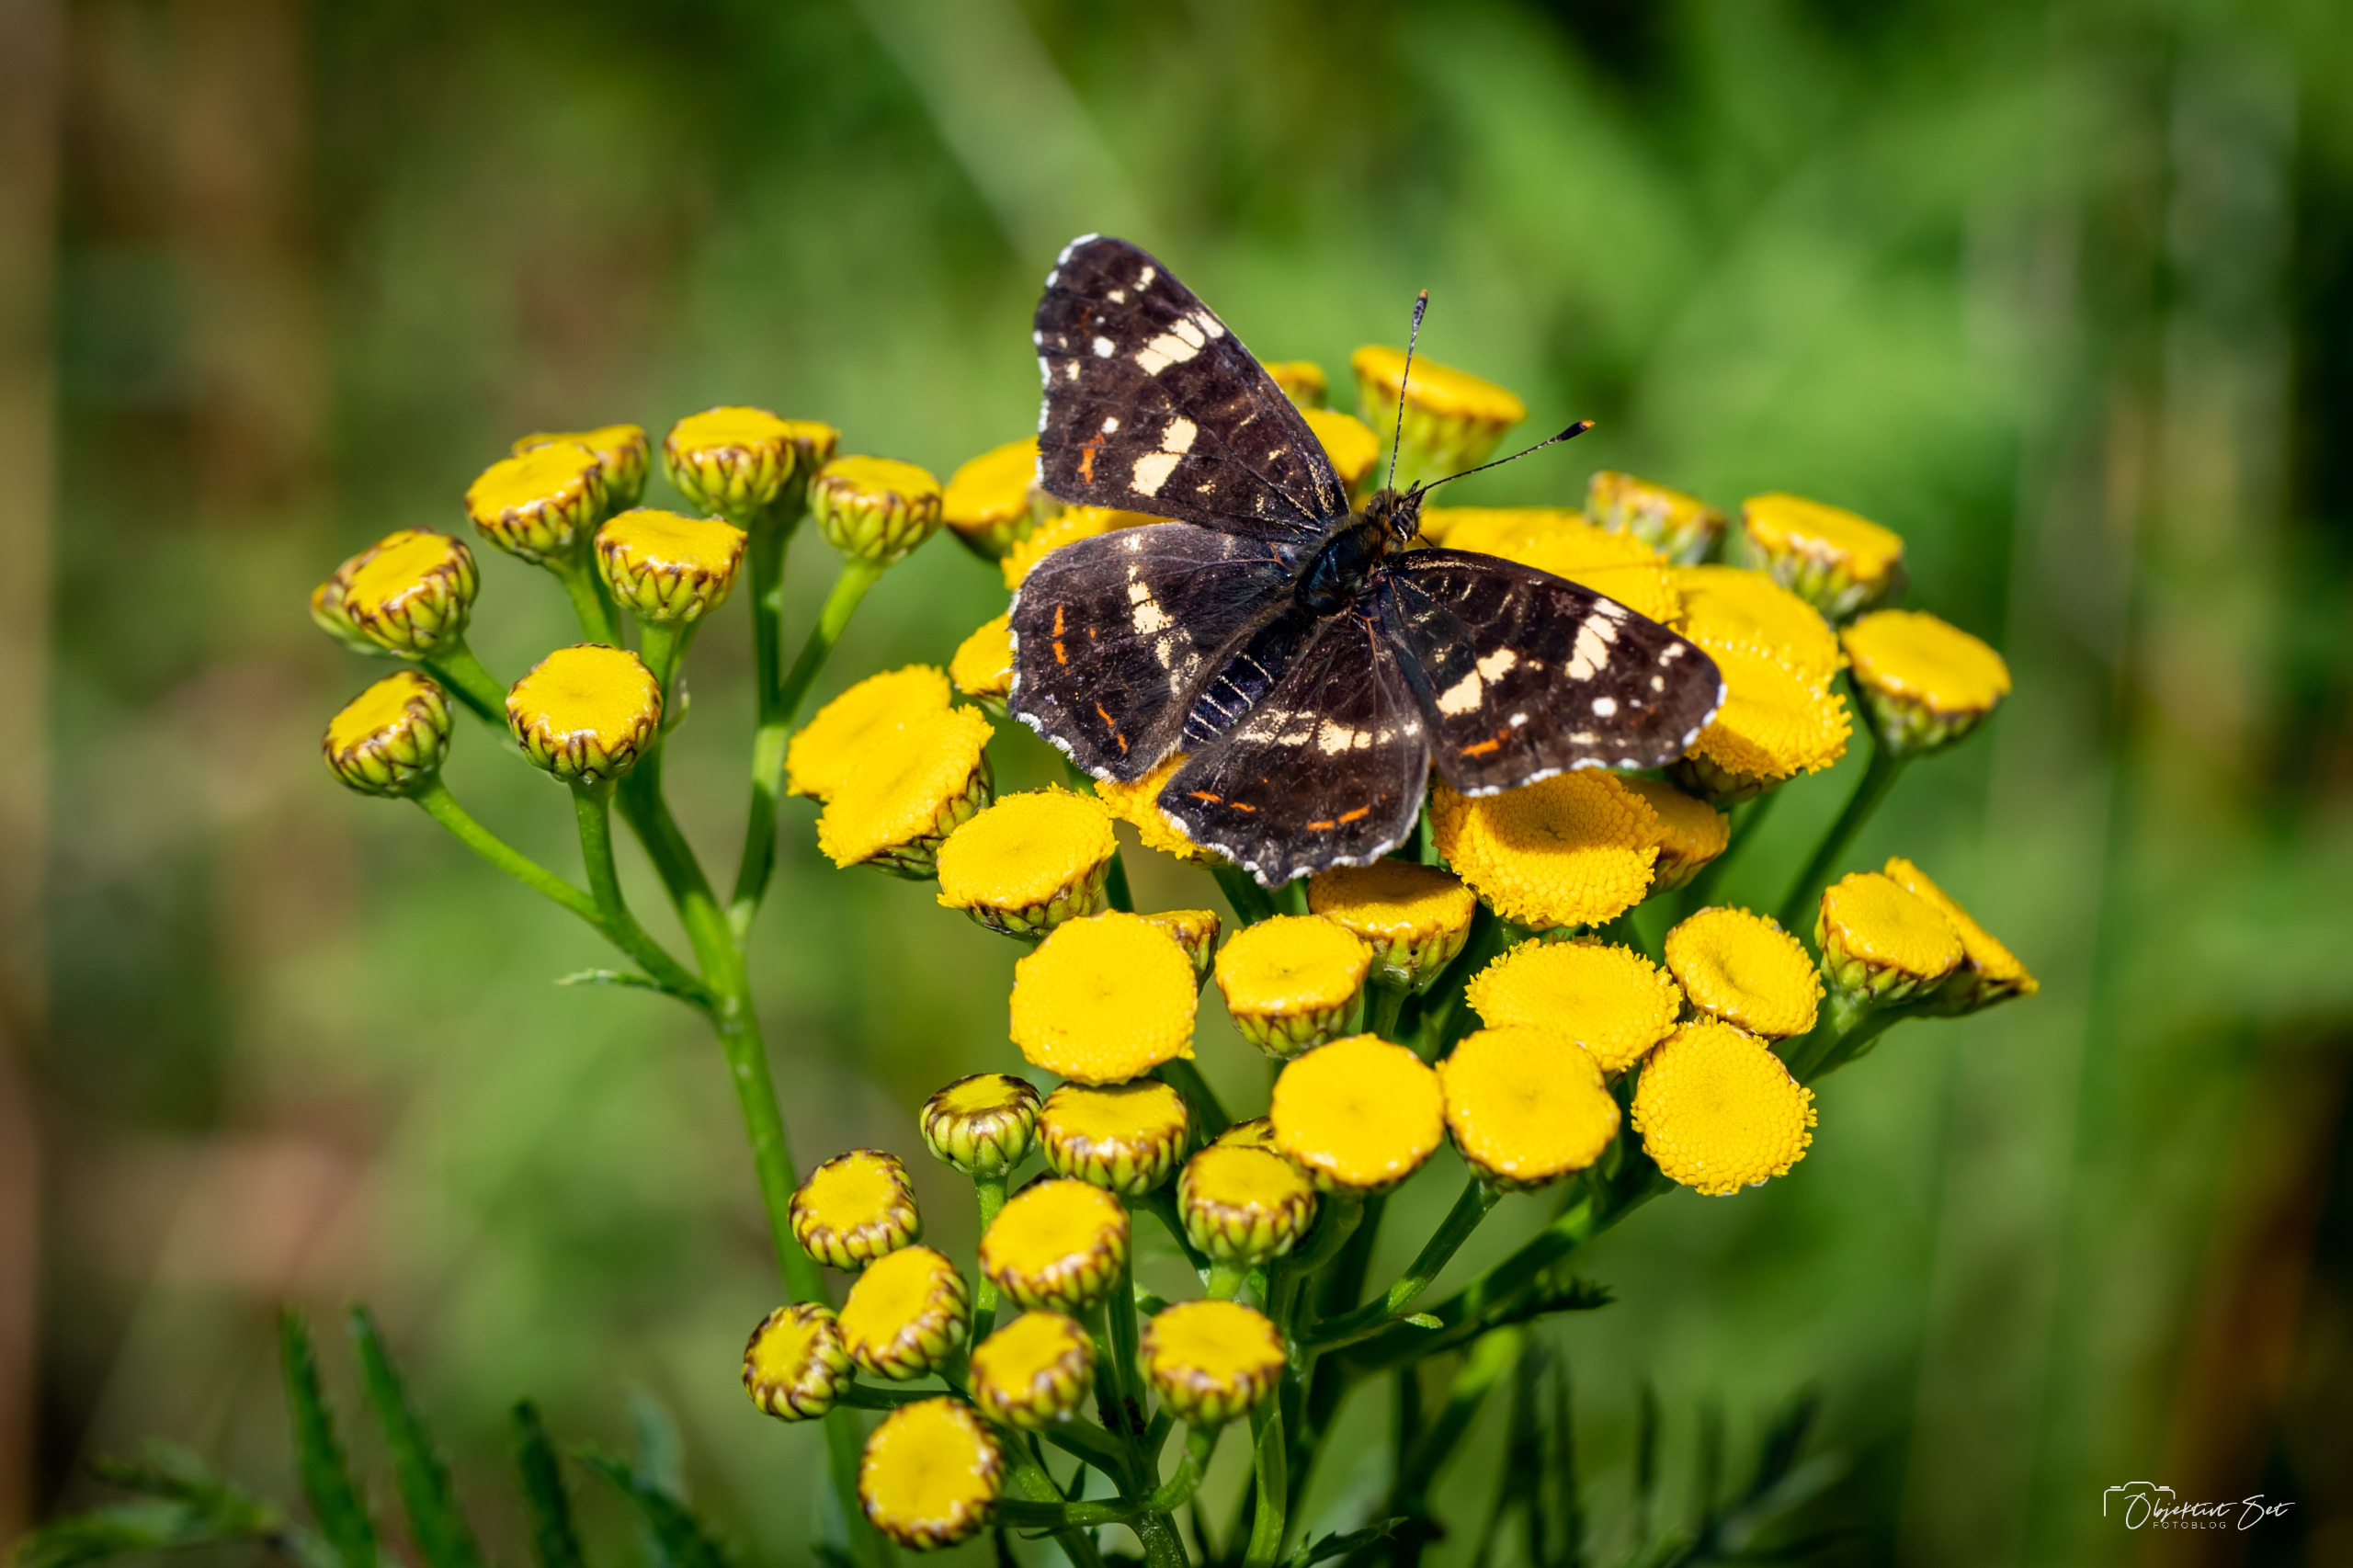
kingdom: Animalia
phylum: Arthropoda
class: Insecta
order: Lepidoptera
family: Nymphalidae
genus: Araschnia
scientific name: Araschnia levana
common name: Nældesommerfugl
